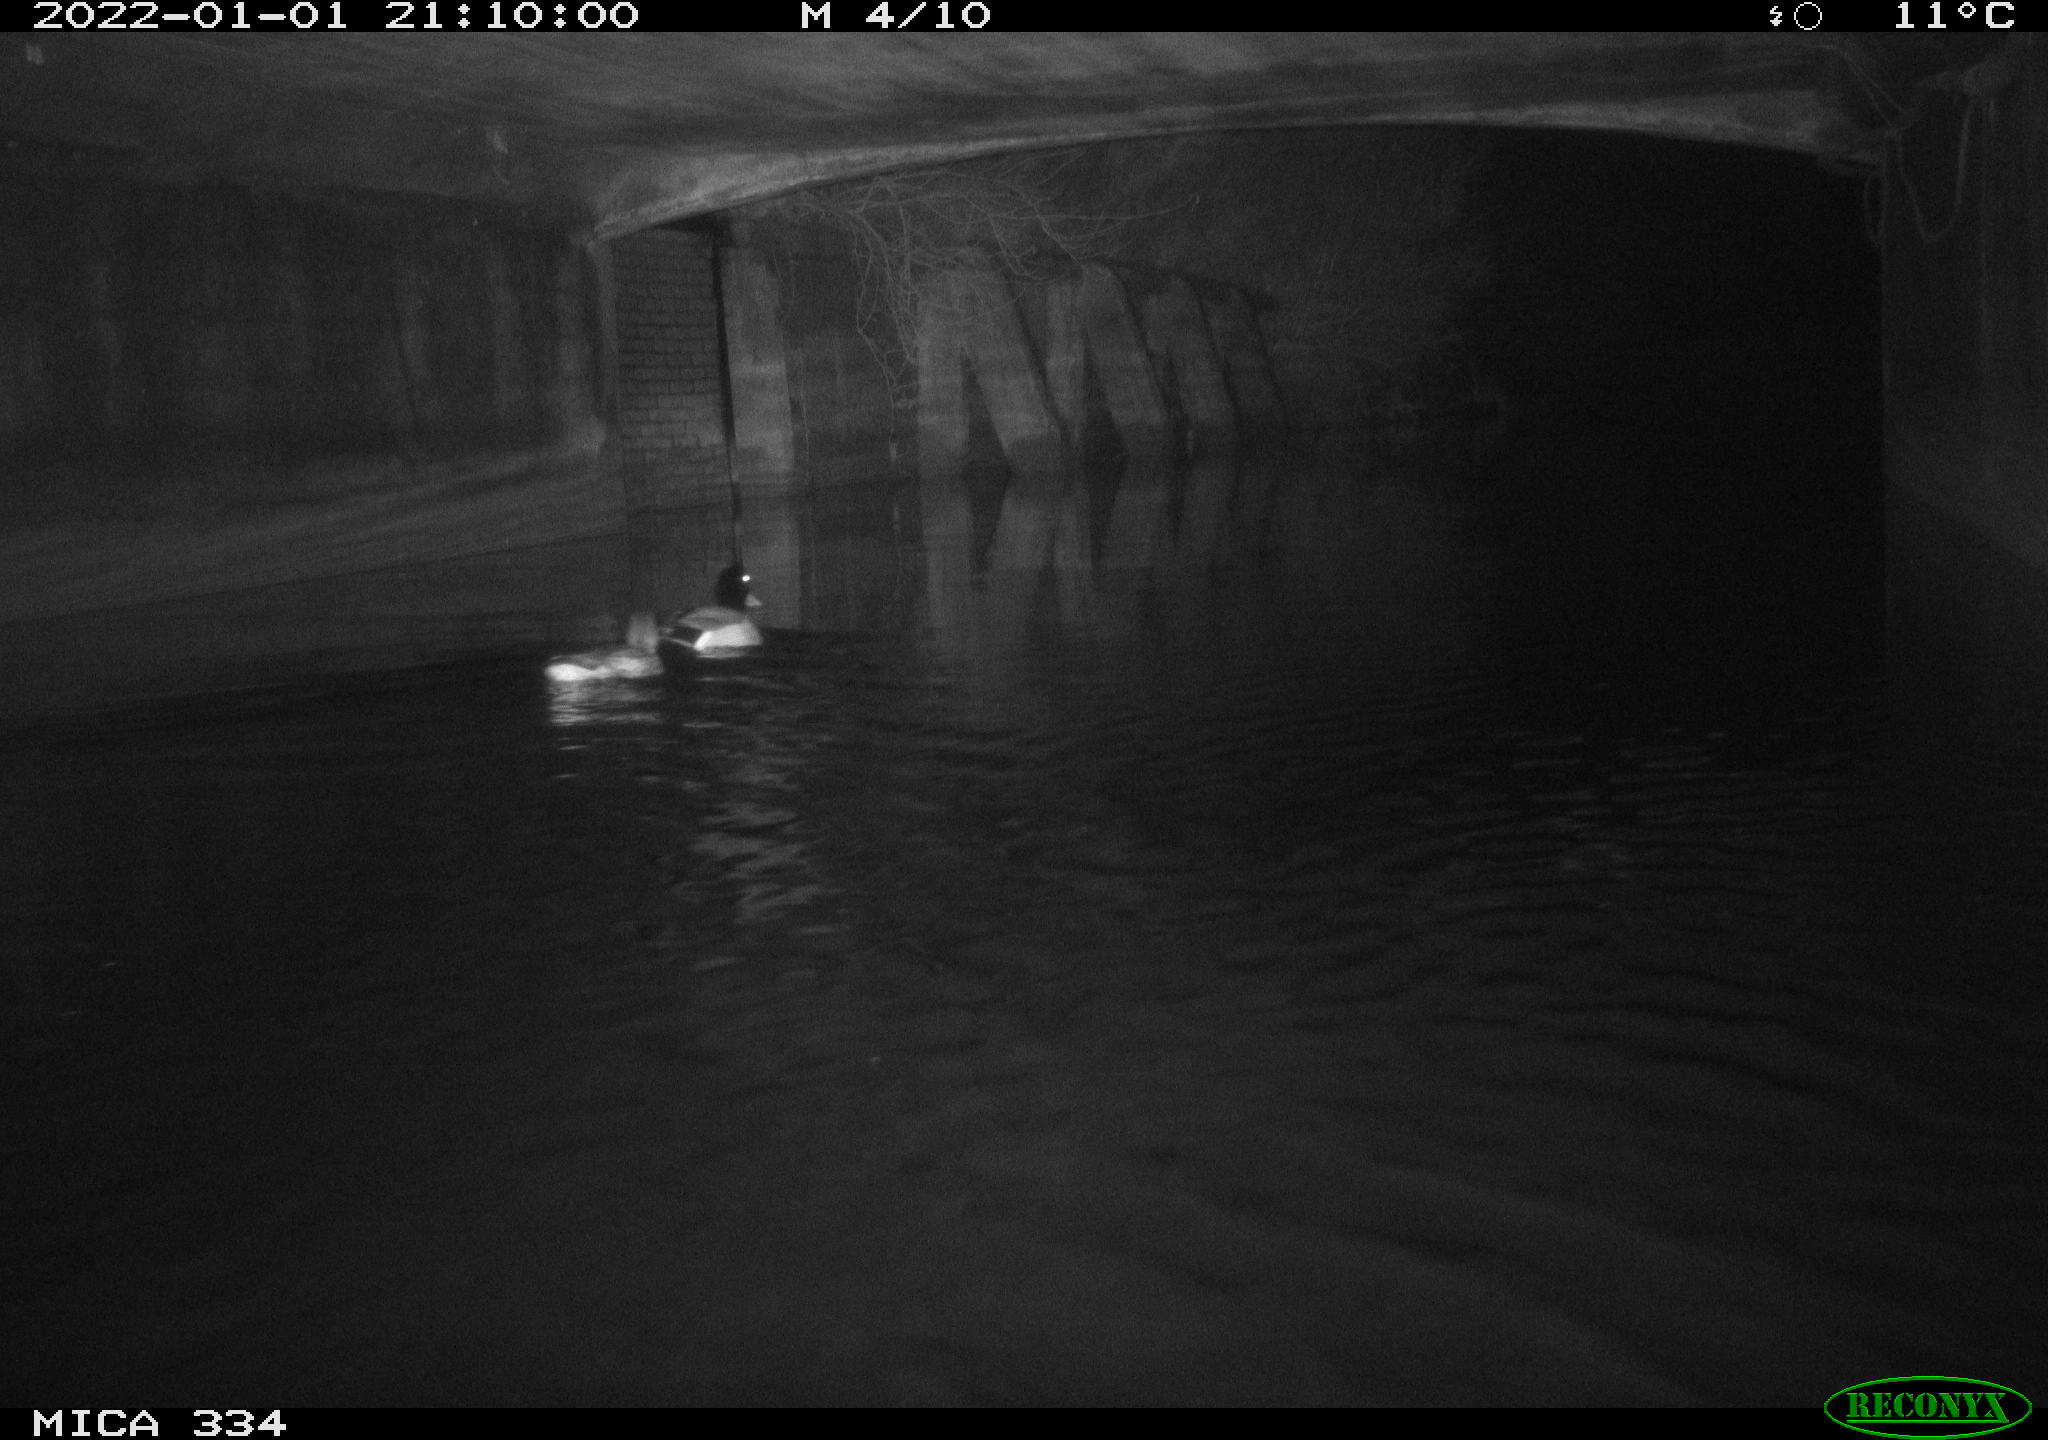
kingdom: Animalia
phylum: Chordata
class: Aves
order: Anseriformes
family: Anatidae
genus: Anas
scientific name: Anas platyrhynchos
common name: Mallard
